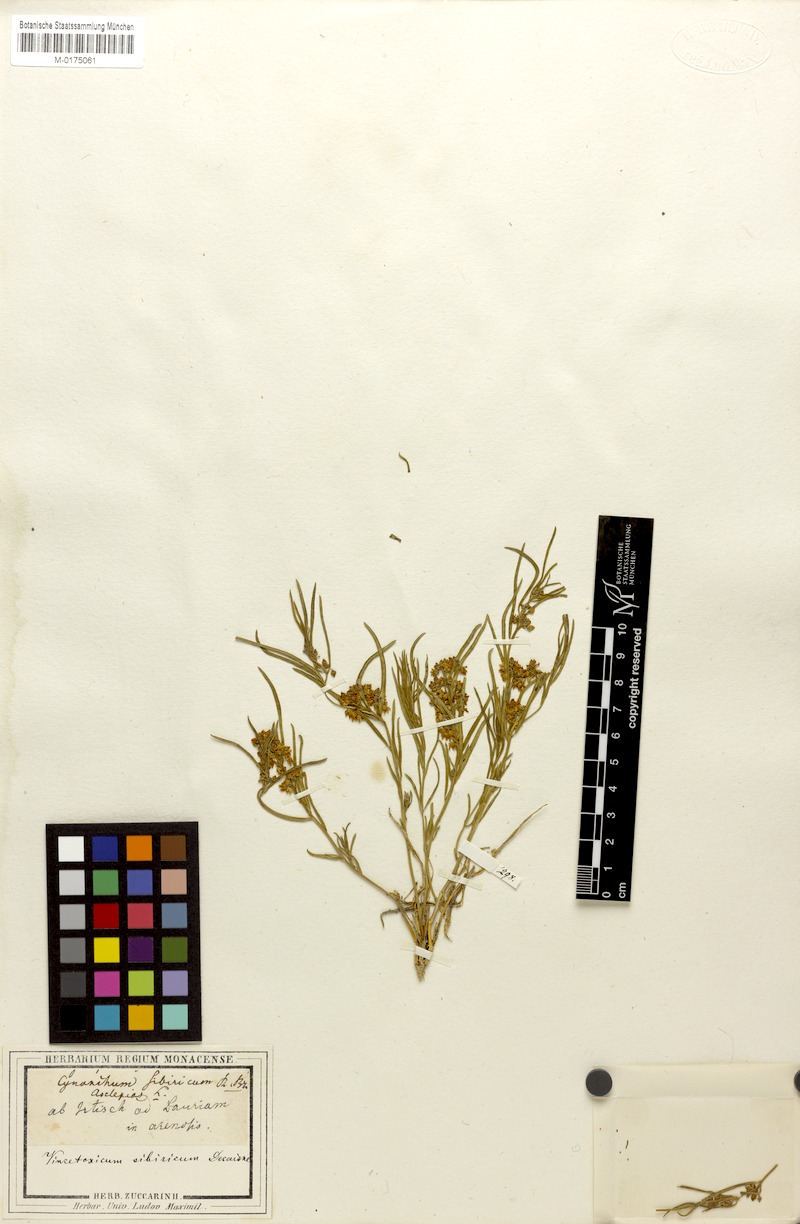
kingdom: Plantae
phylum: Tracheophyta
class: Magnoliopsida
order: Gentianales
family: Apocynaceae
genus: Cynanchum
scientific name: Cynanchum thesioides
